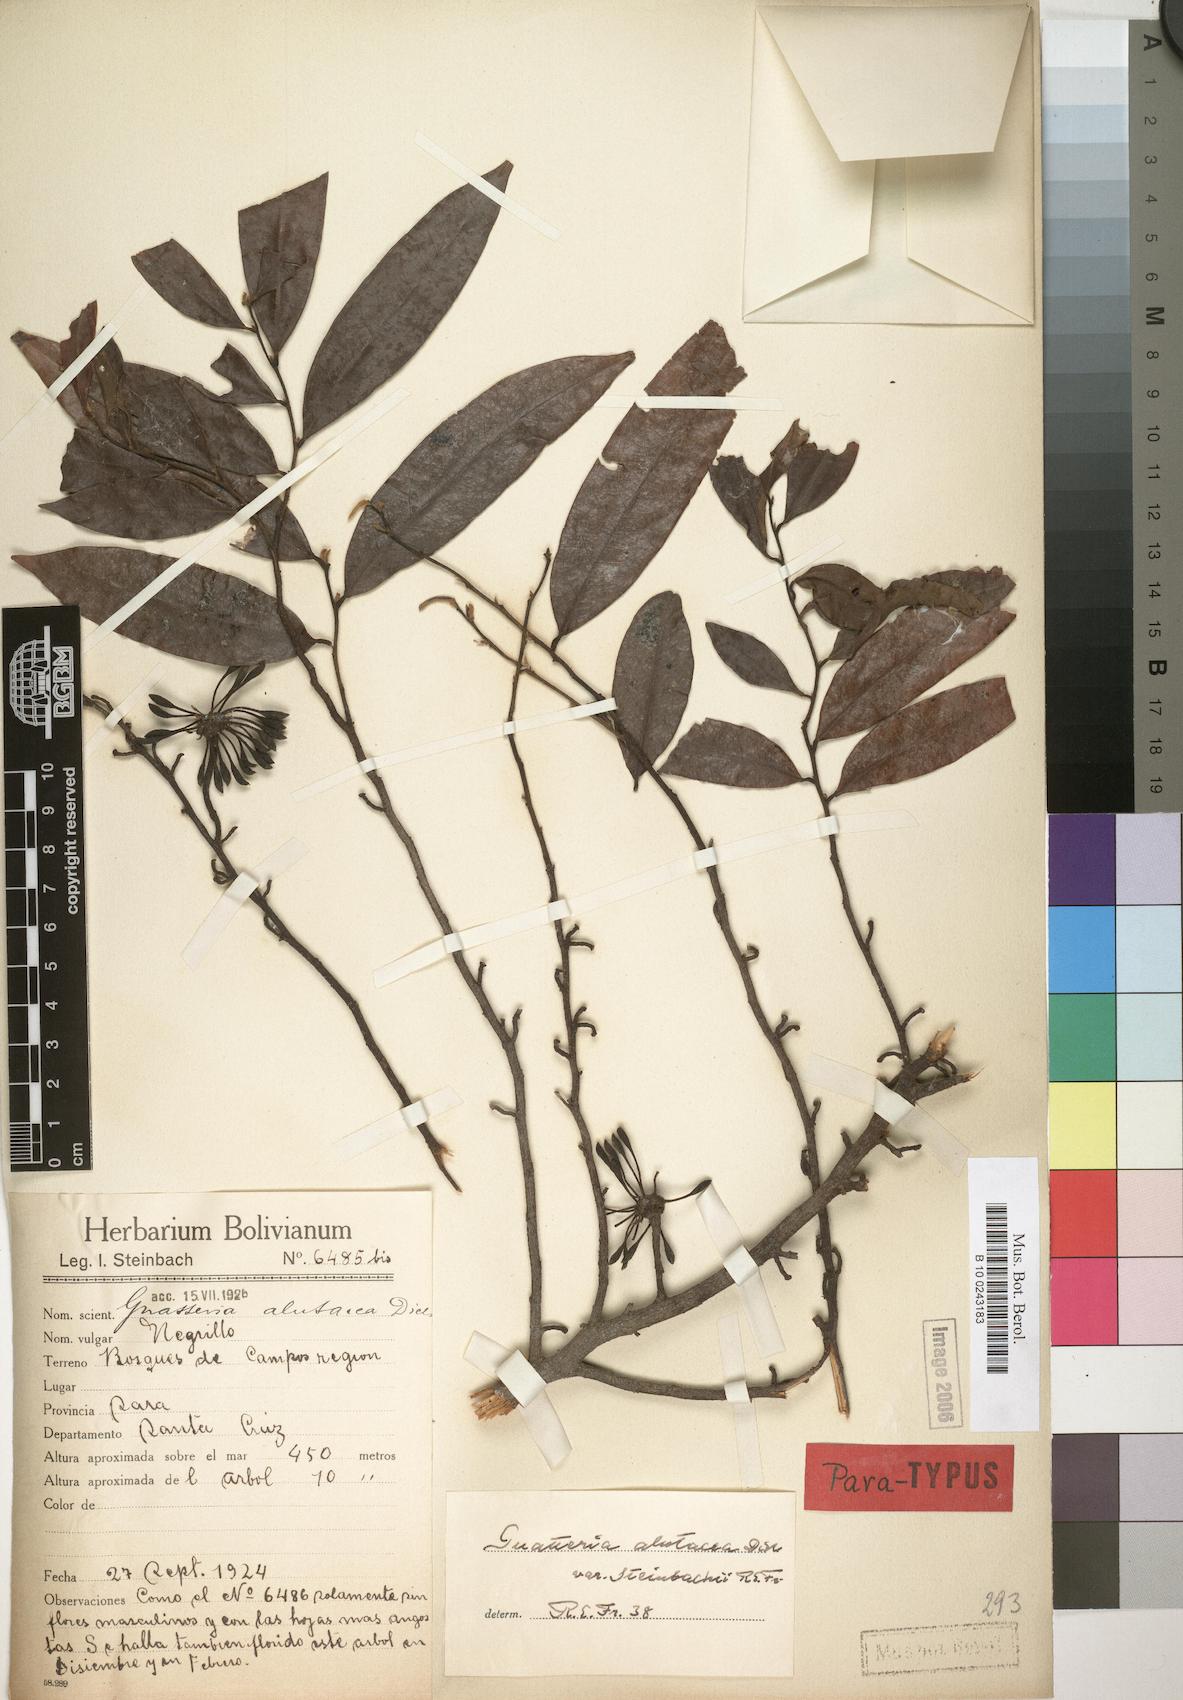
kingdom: Plantae
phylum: Tracheophyta
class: Magnoliopsida
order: Magnoliales
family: Annonaceae
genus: Guatteria
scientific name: Guatteria alutacea
